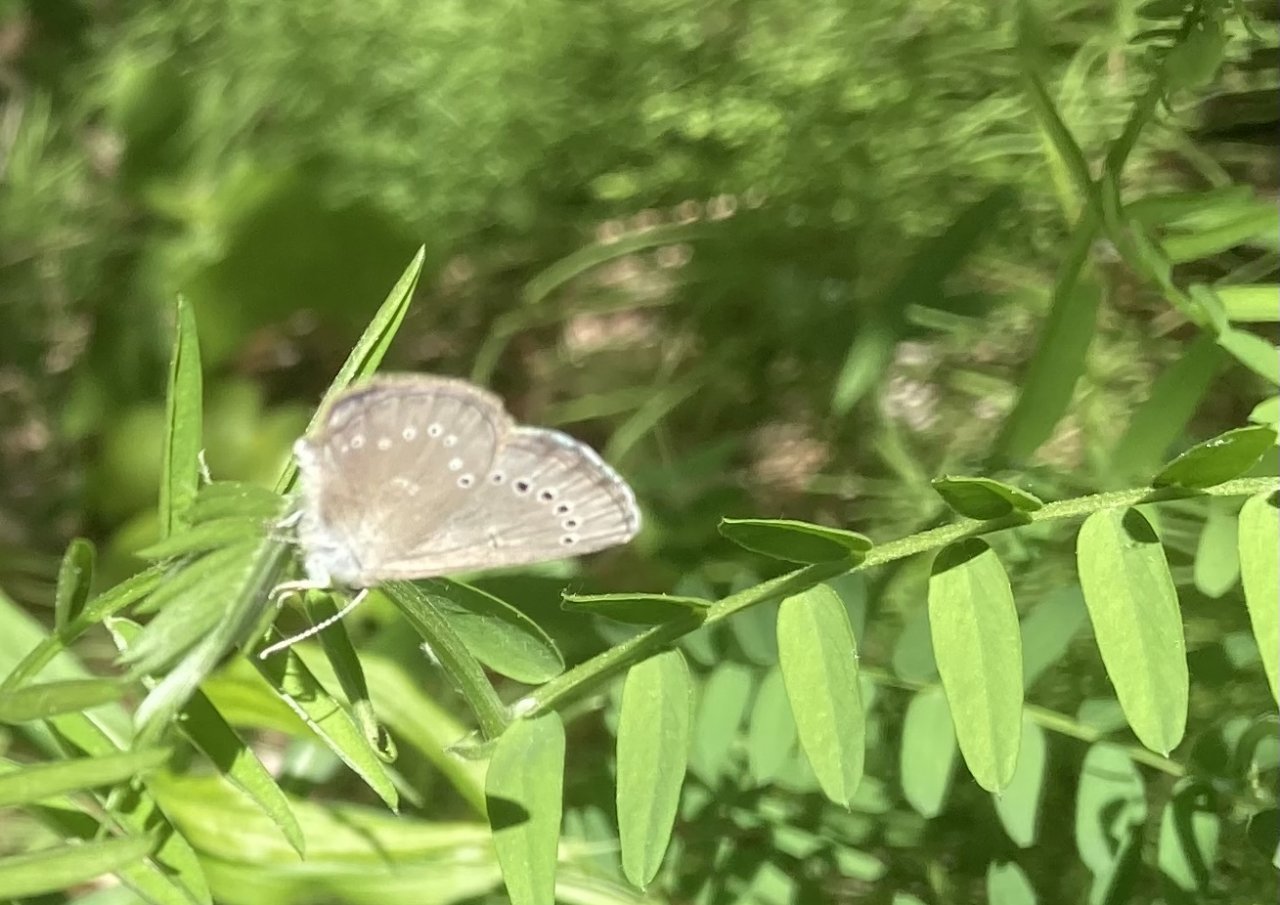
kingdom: Animalia
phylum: Arthropoda
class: Insecta
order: Lepidoptera
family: Lycaenidae
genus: Glaucopsyche
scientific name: Glaucopsyche lygdamus
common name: Silvery Blue
